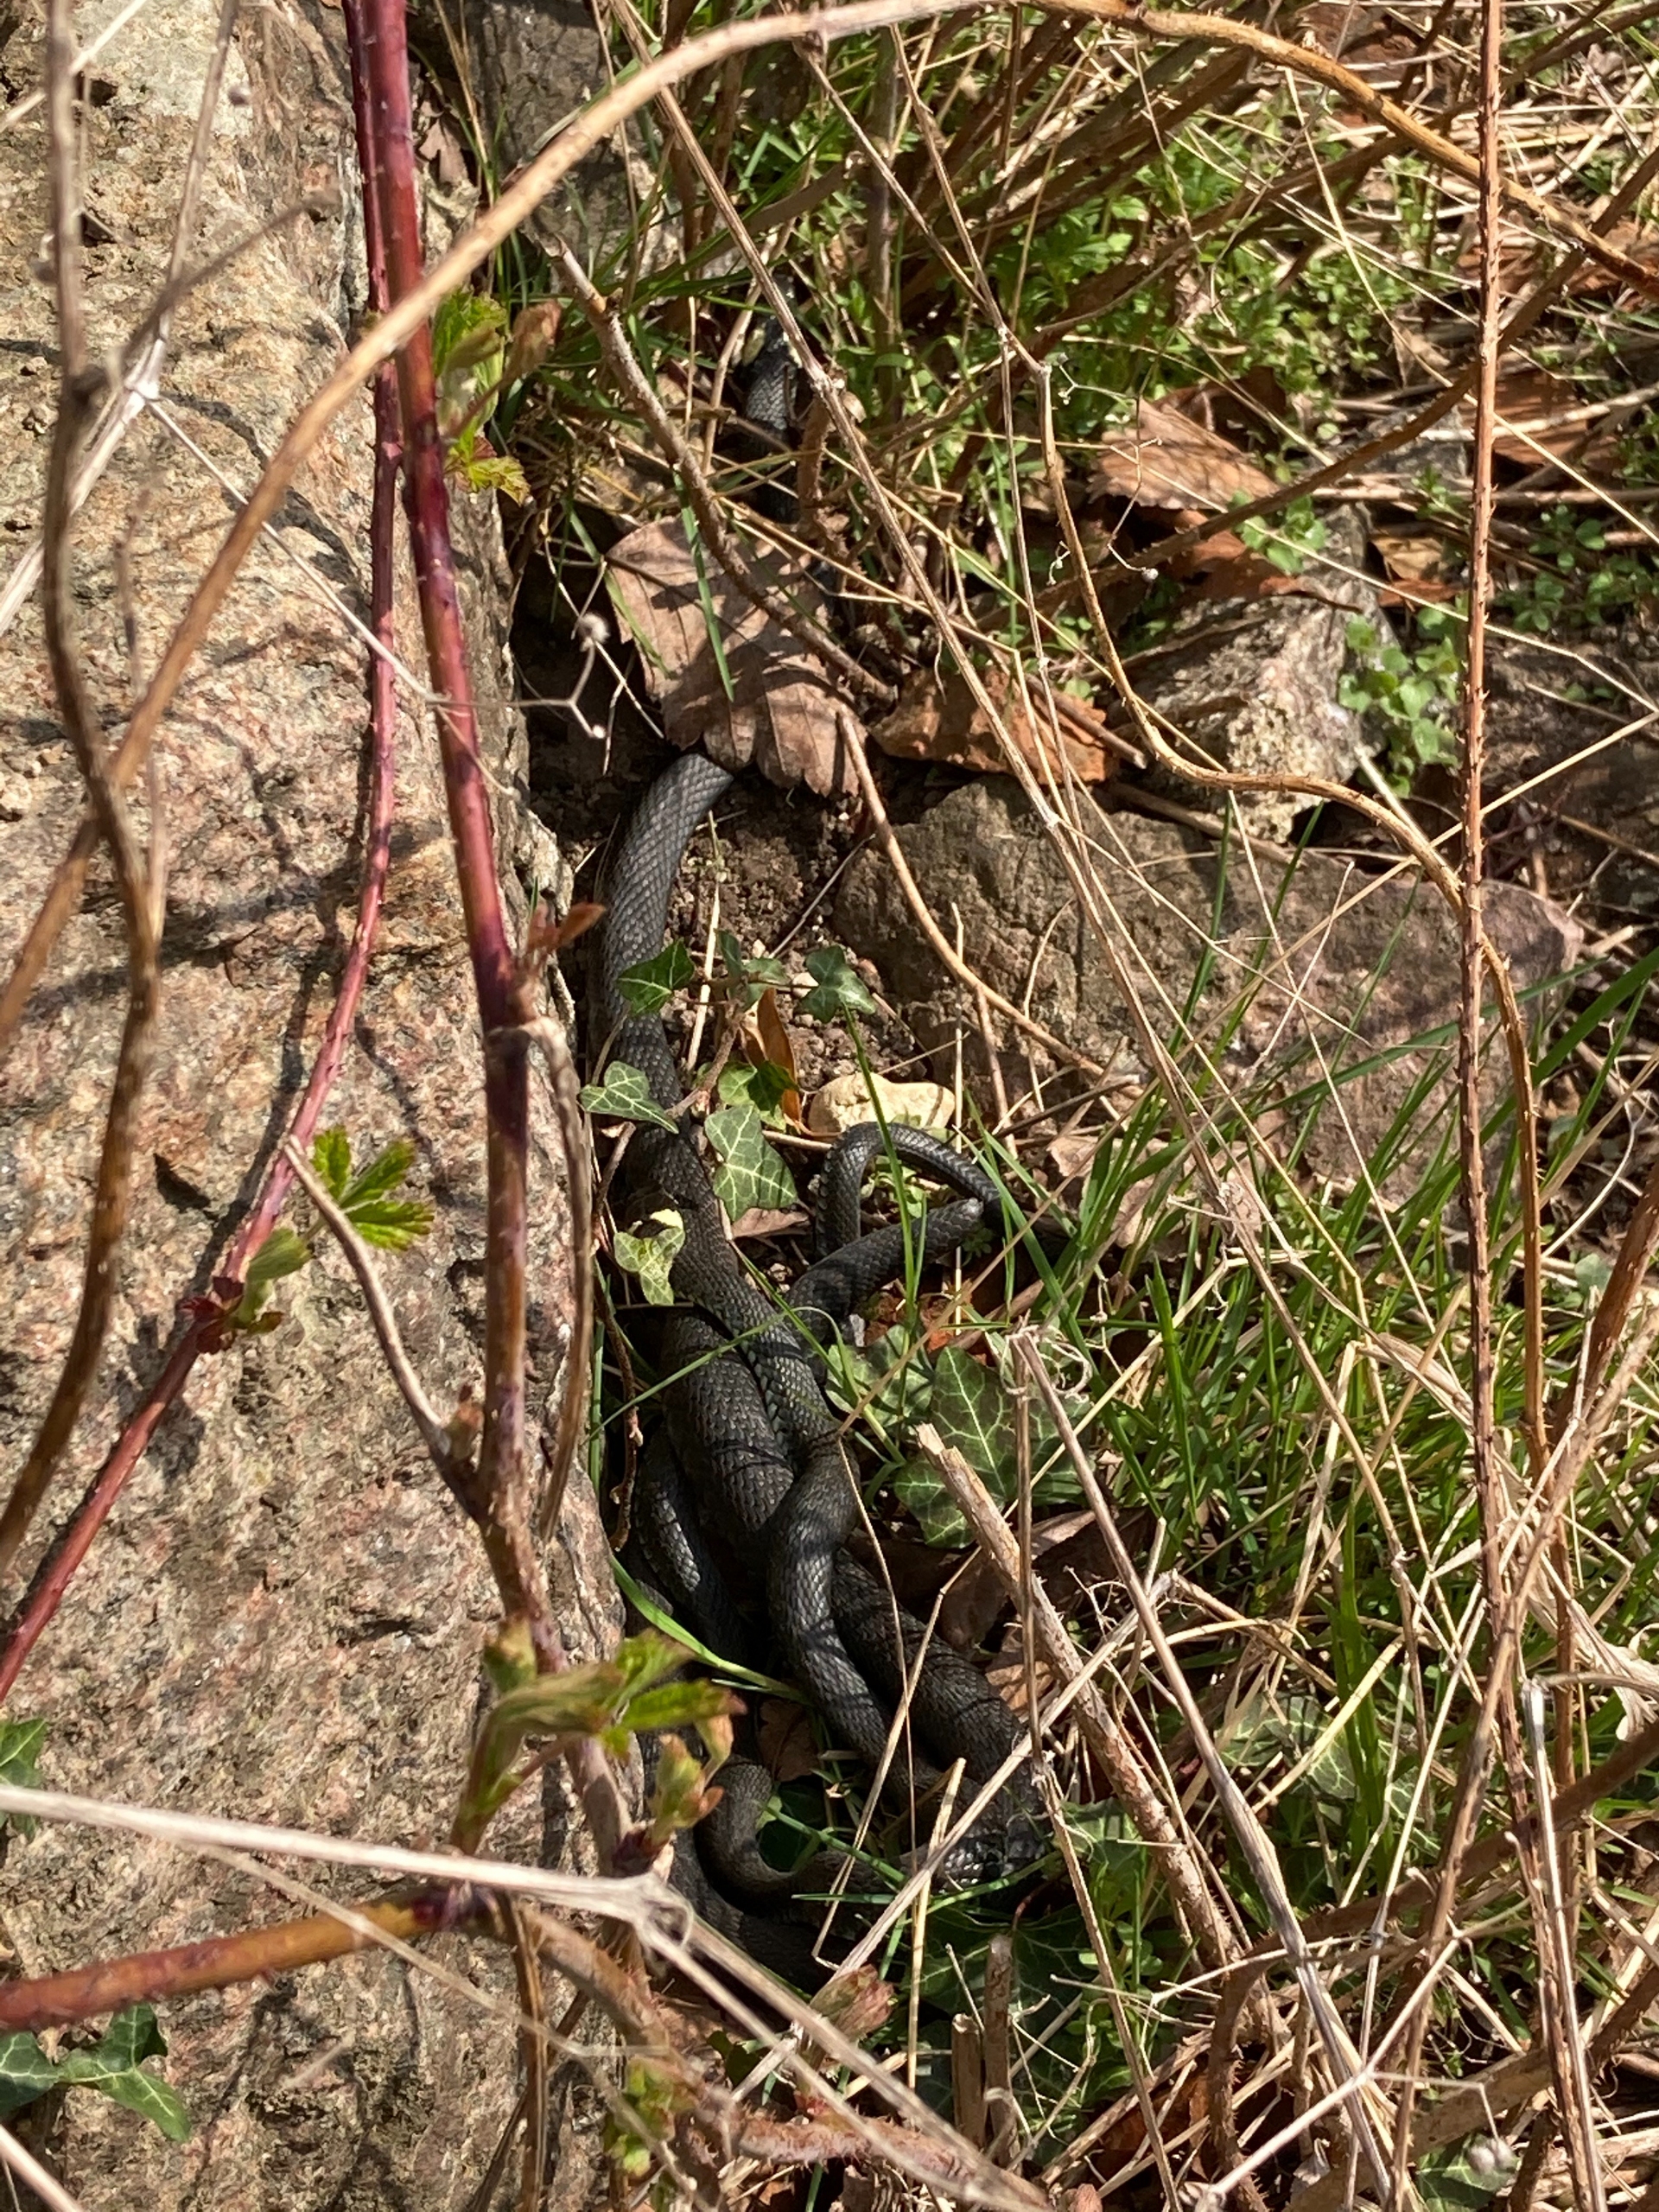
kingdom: Animalia
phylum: Chordata
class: Squamata
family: Colubridae
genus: Natrix
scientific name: Natrix natrix
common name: Snog
